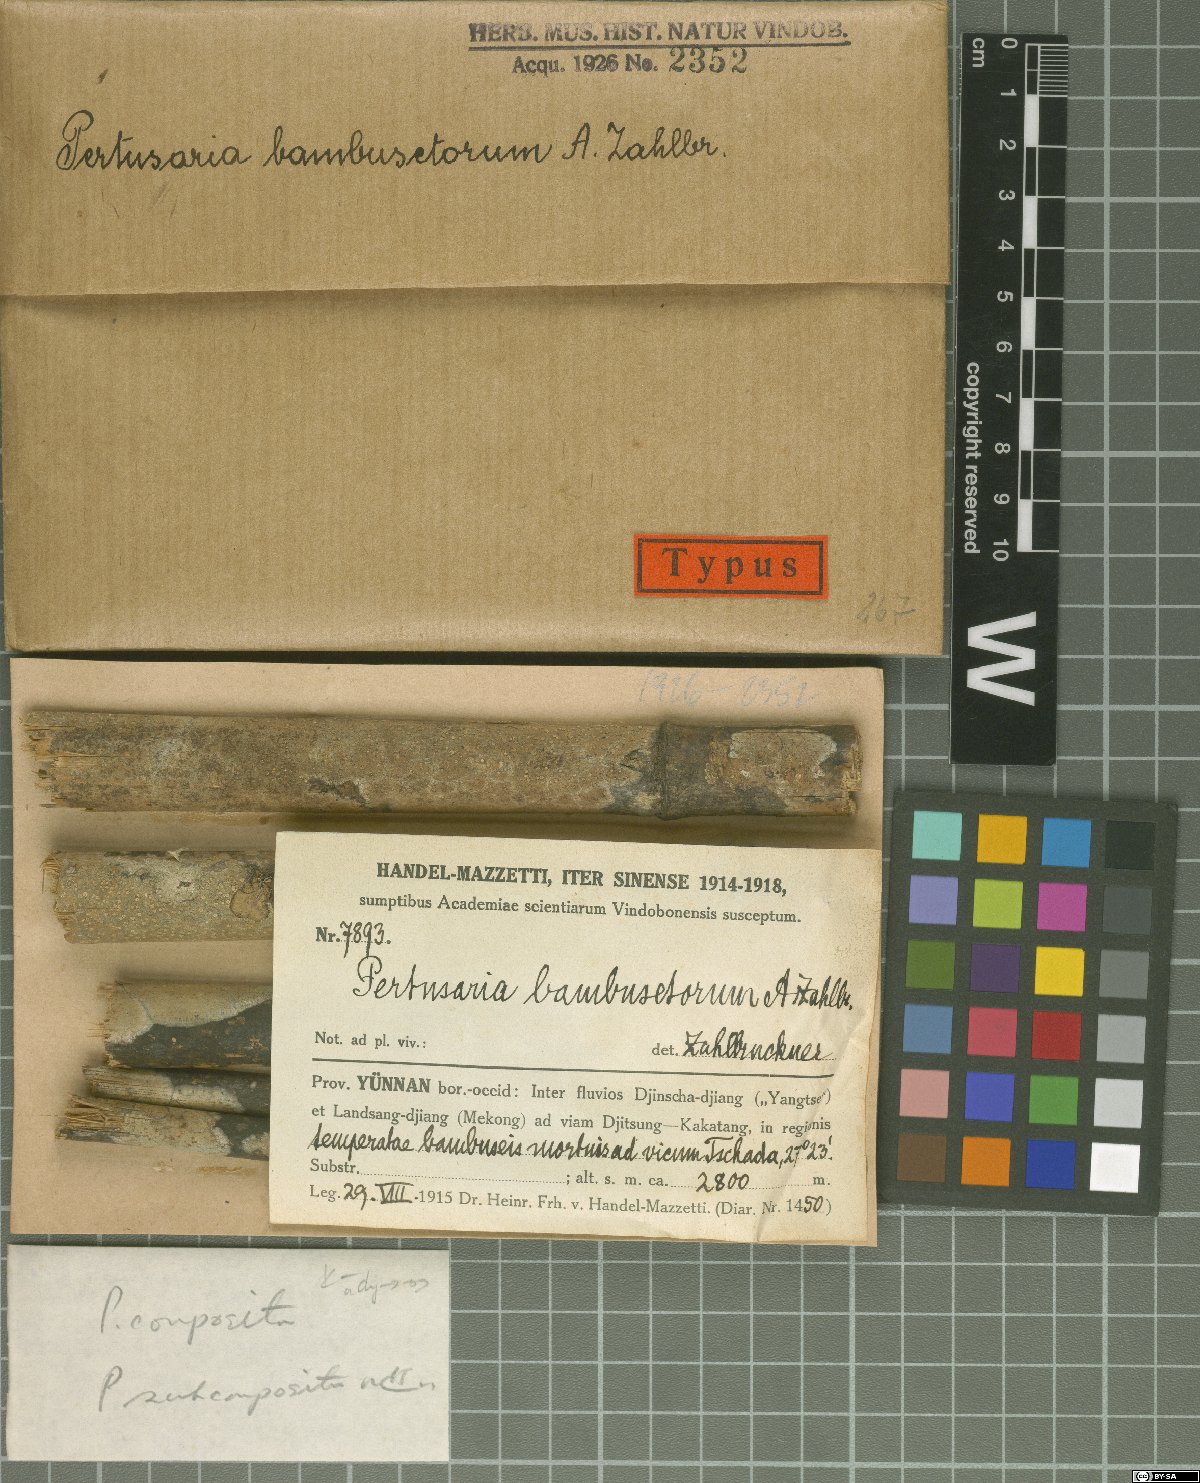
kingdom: Fungi
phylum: Ascomycota
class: Lecanoromycetes
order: Pertusariales
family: Pertusariaceae
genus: Lepra
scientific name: Lepra bambusetorum
